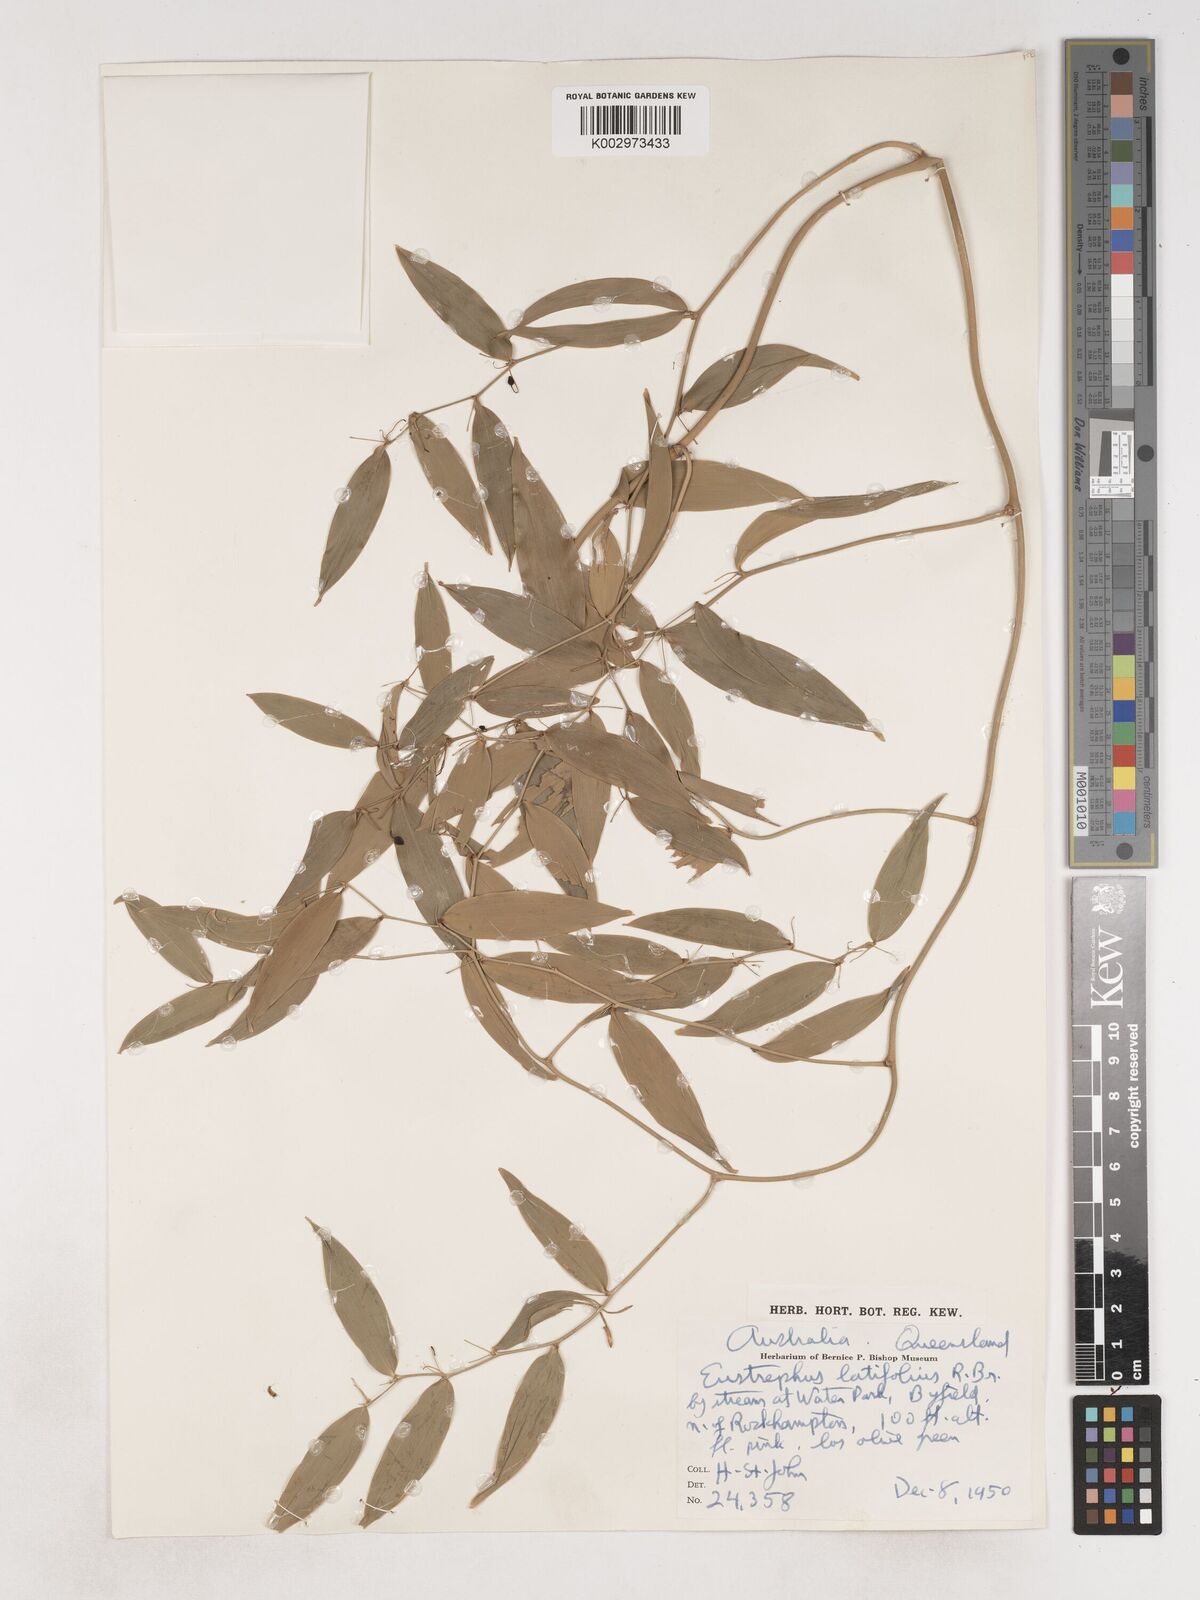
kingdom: Plantae
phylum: Tracheophyta
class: Liliopsida
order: Asparagales
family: Asparagaceae
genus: Eustrephus
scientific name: Eustrephus latifolius
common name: Orangevine
